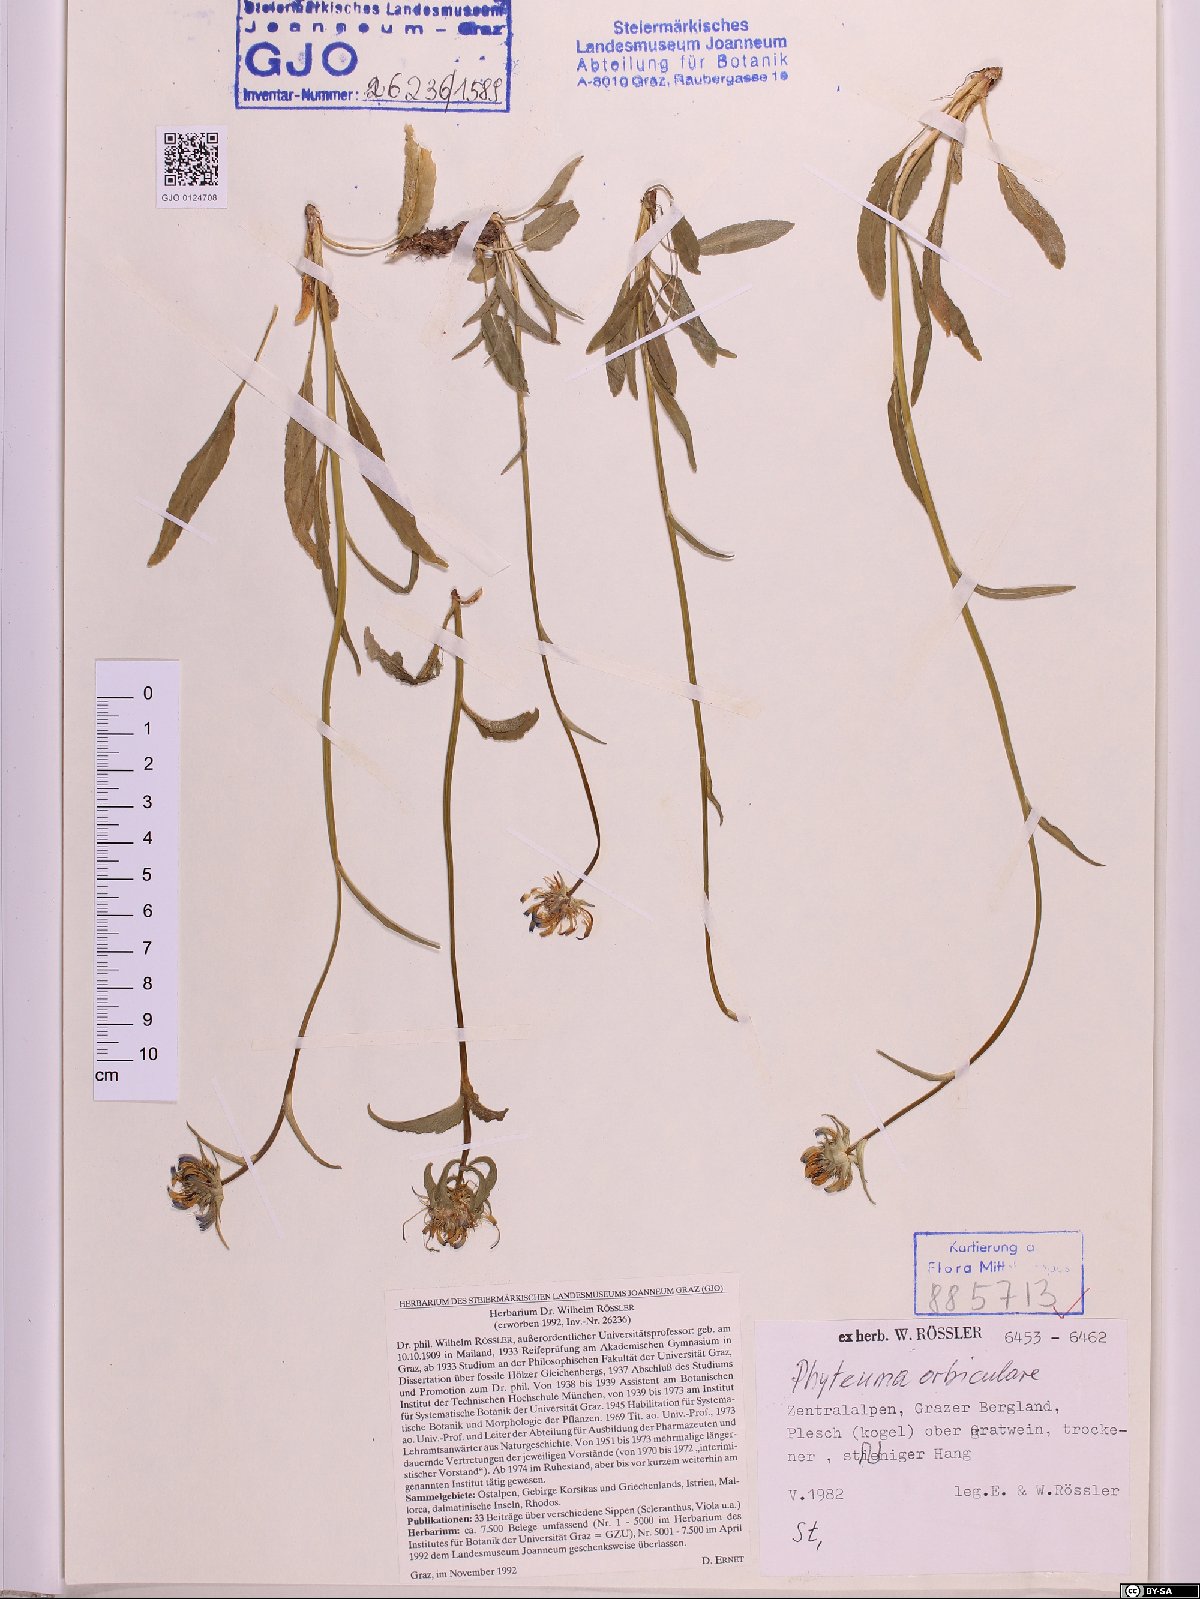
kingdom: Plantae
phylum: Tracheophyta
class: Magnoliopsida
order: Asterales
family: Campanulaceae
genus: Phyteuma
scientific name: Phyteuma orbiculare
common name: Round-headed rampion
